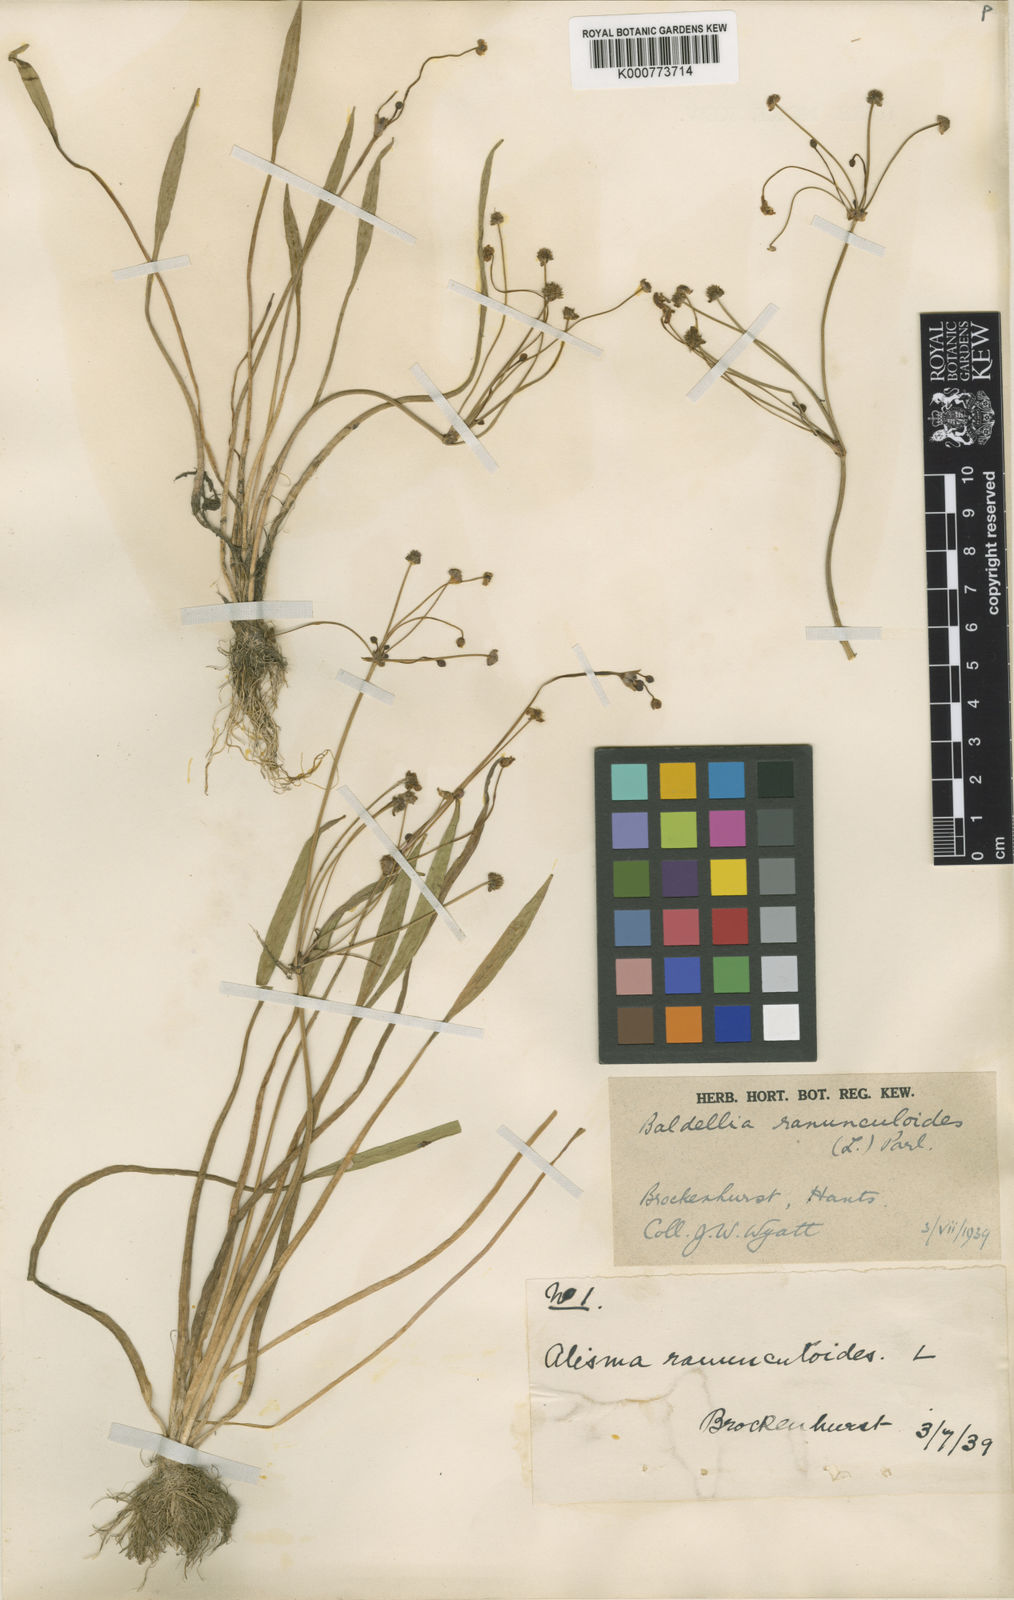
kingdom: Plantae
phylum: Tracheophyta
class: Liliopsida
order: Alismatales
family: Alismataceae
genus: Baldellia
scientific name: Baldellia ranunculoides
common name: Lesser water-plantain
